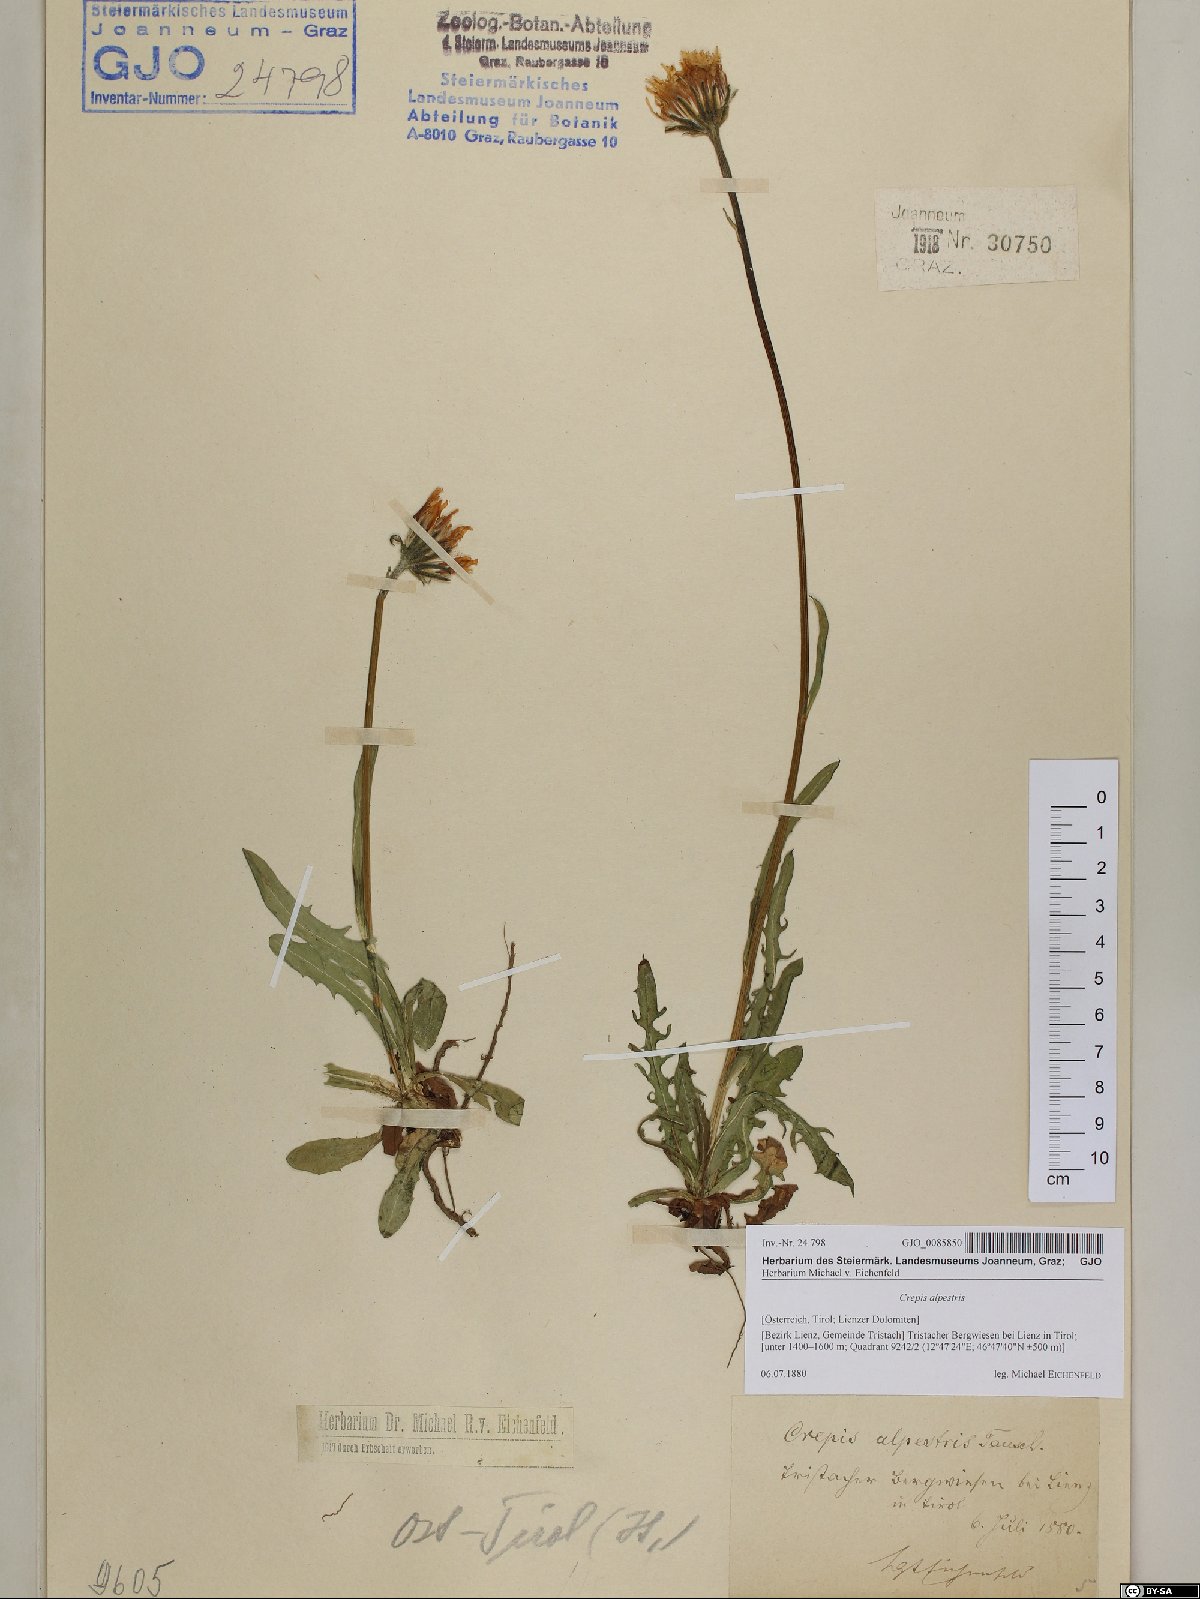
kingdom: Plantae
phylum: Tracheophyta
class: Magnoliopsida
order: Asterales
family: Asteraceae
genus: Crepis
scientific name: Crepis alpestris
